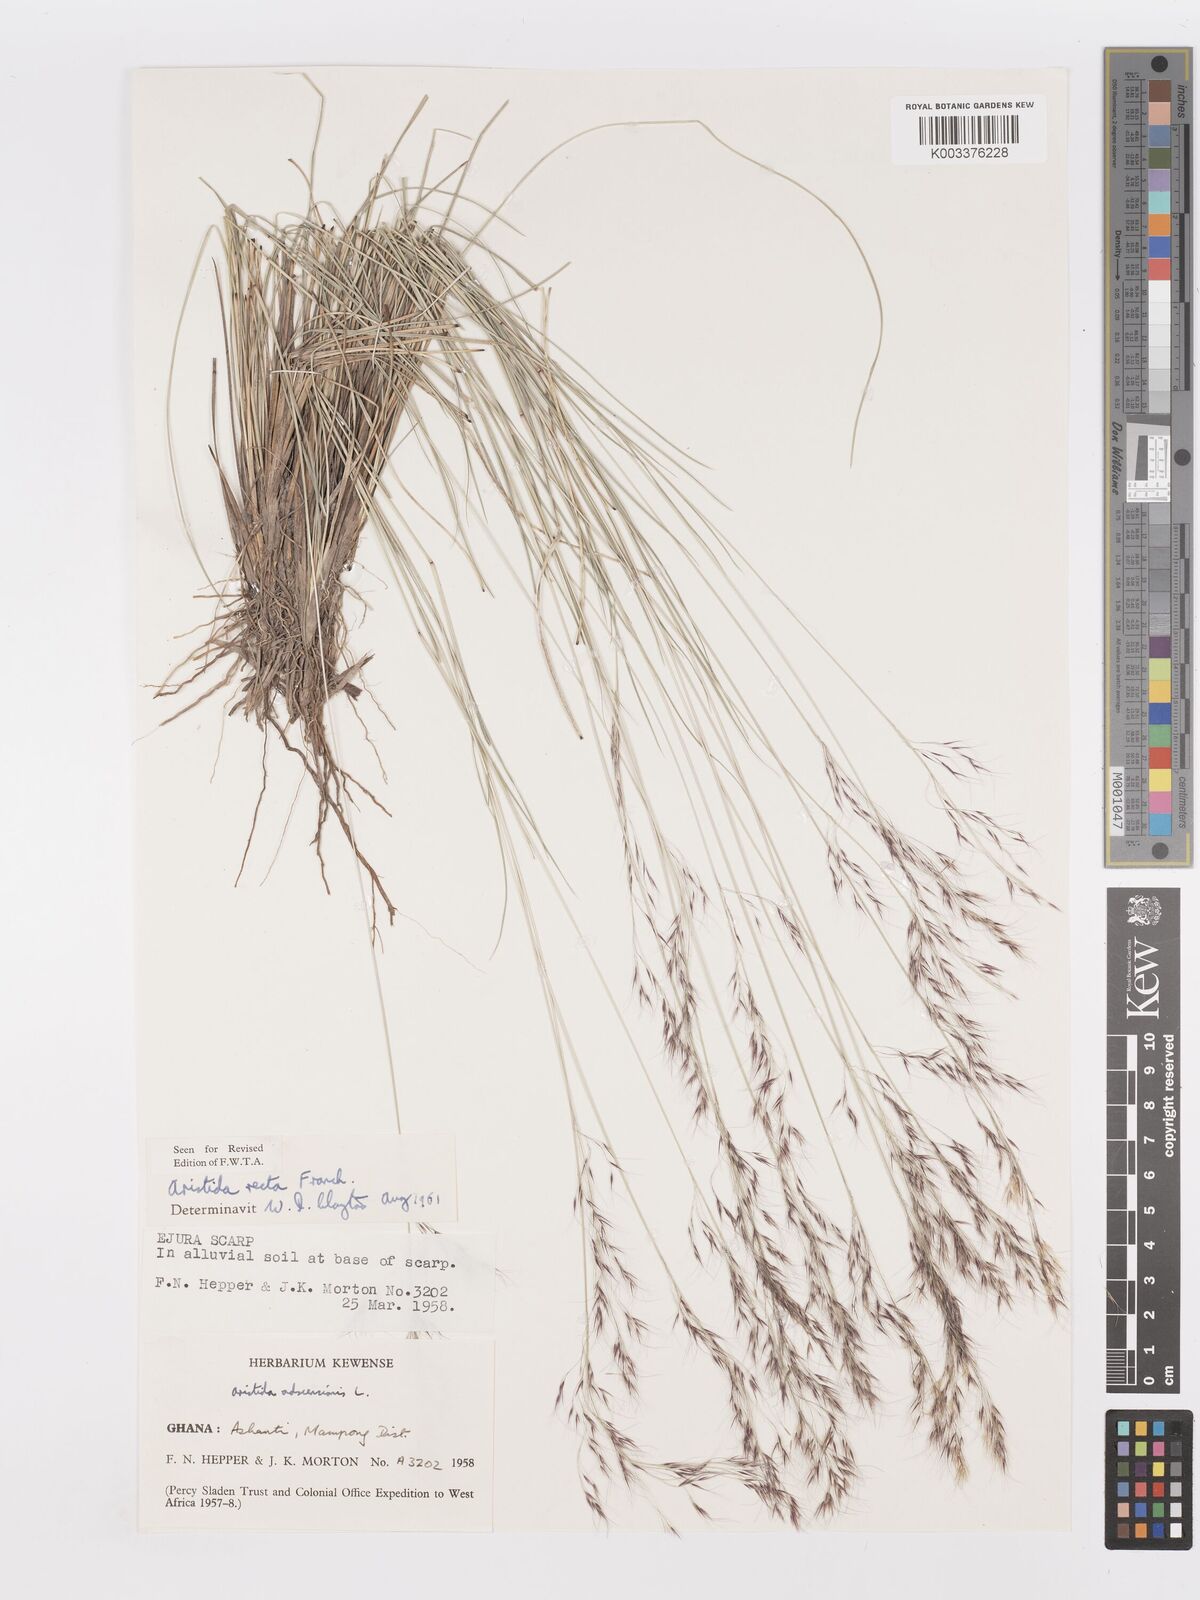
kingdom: Plantae
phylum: Tracheophyta
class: Liliopsida
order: Poales
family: Poaceae
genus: Aristida
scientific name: Aristida recta
